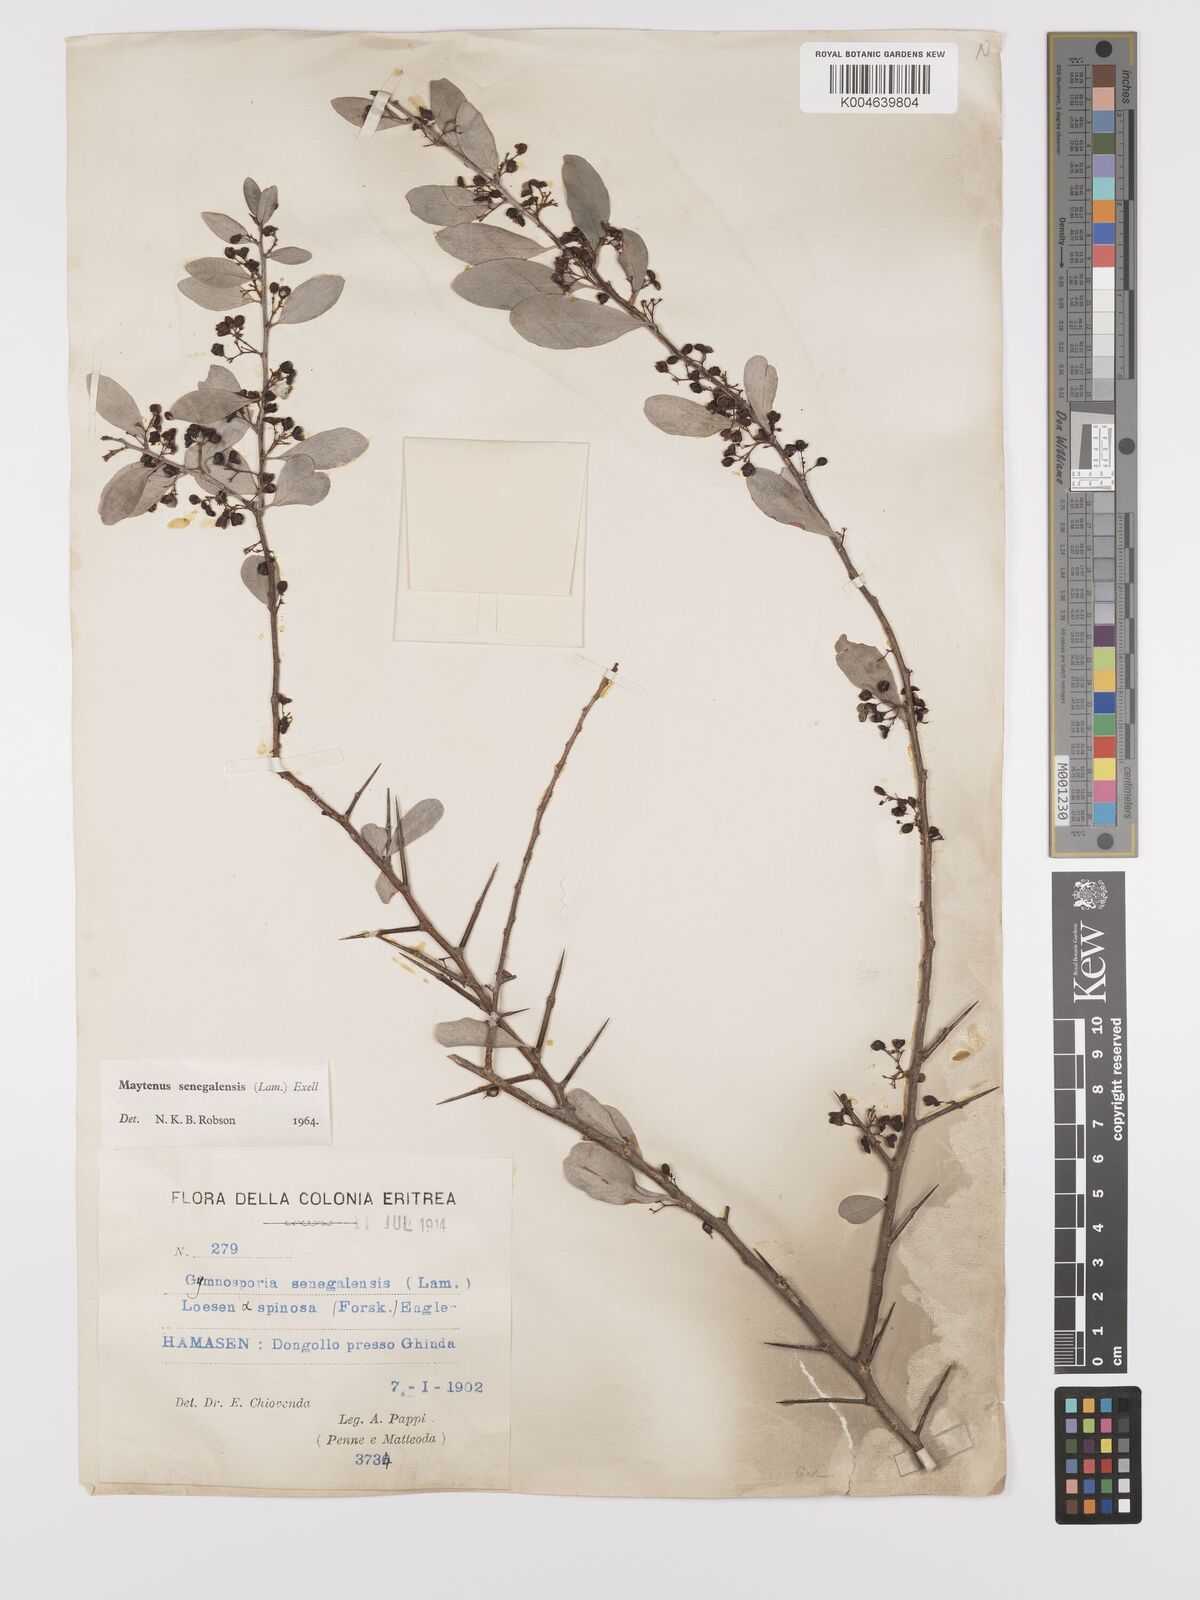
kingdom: Plantae
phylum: Tracheophyta
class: Magnoliopsida
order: Celastrales
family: Celastraceae
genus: Gymnosporia
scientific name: Gymnosporia senegalensis
